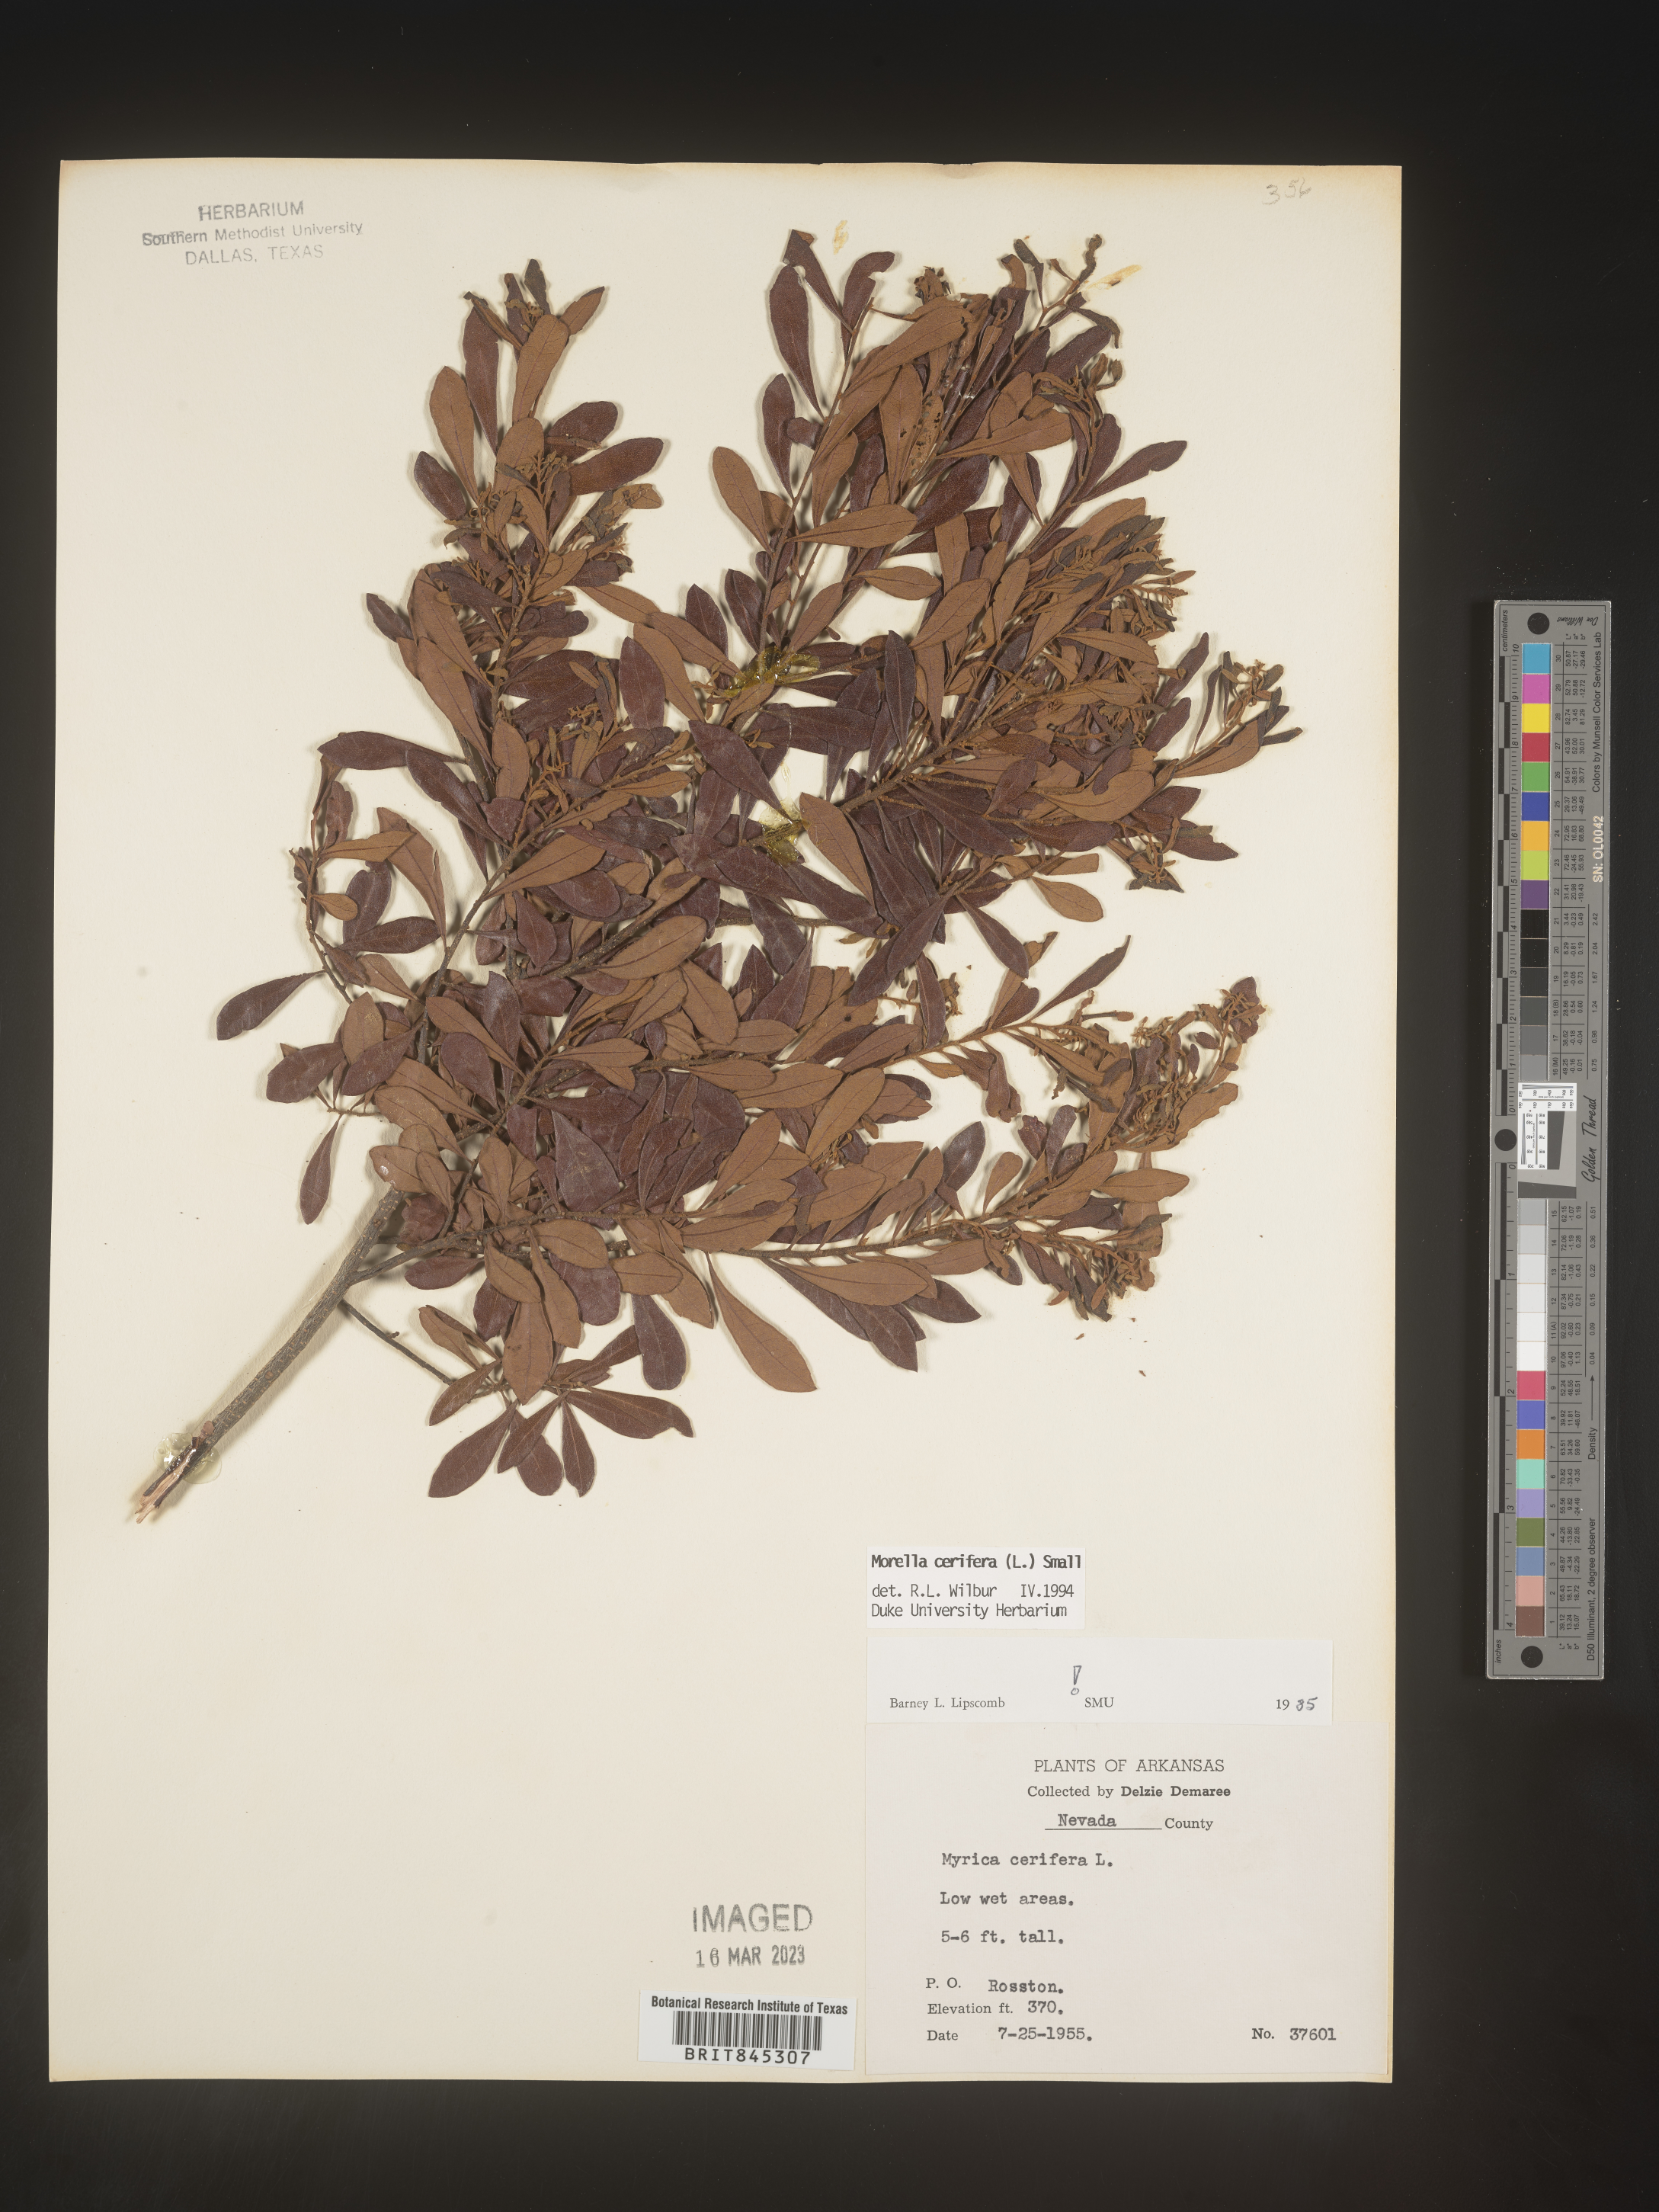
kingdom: Plantae
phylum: Tracheophyta
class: Magnoliopsida
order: Fagales
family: Myricaceae
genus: Morella
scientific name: Morella cerifera
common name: Wax myrtle
